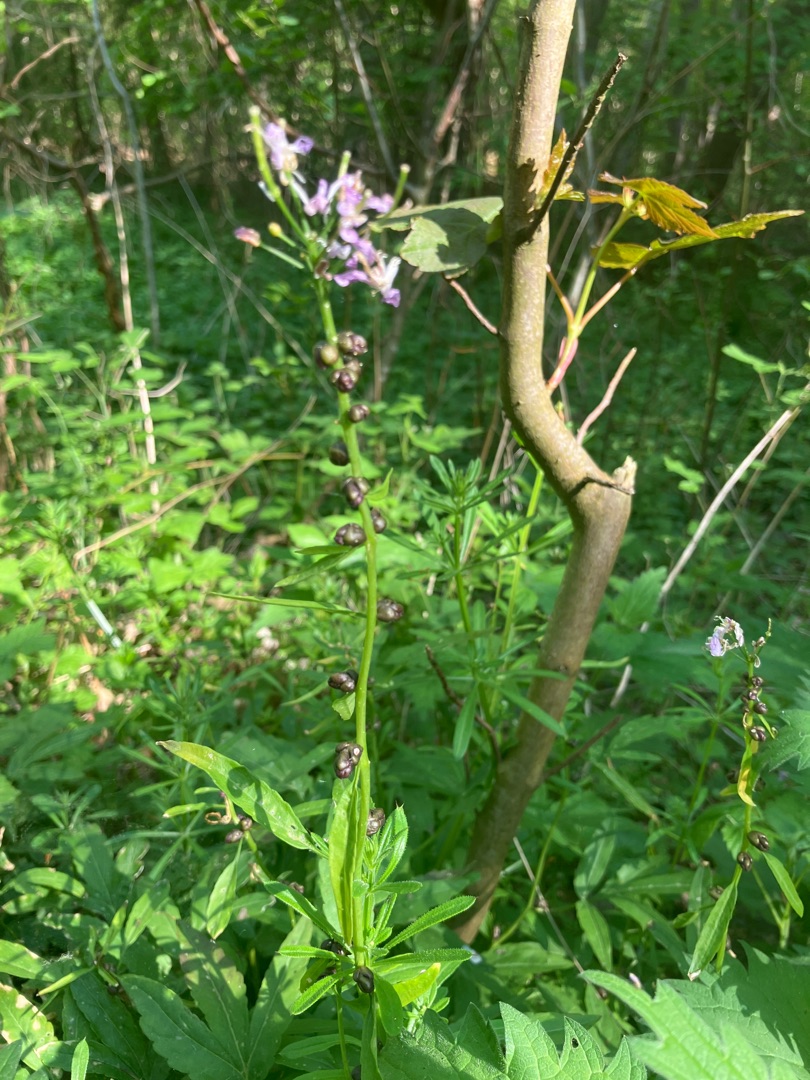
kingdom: Plantae
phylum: Tracheophyta
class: Magnoliopsida
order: Brassicales
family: Brassicaceae
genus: Cardamine
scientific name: Cardamine bulbifera
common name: Tandrod
